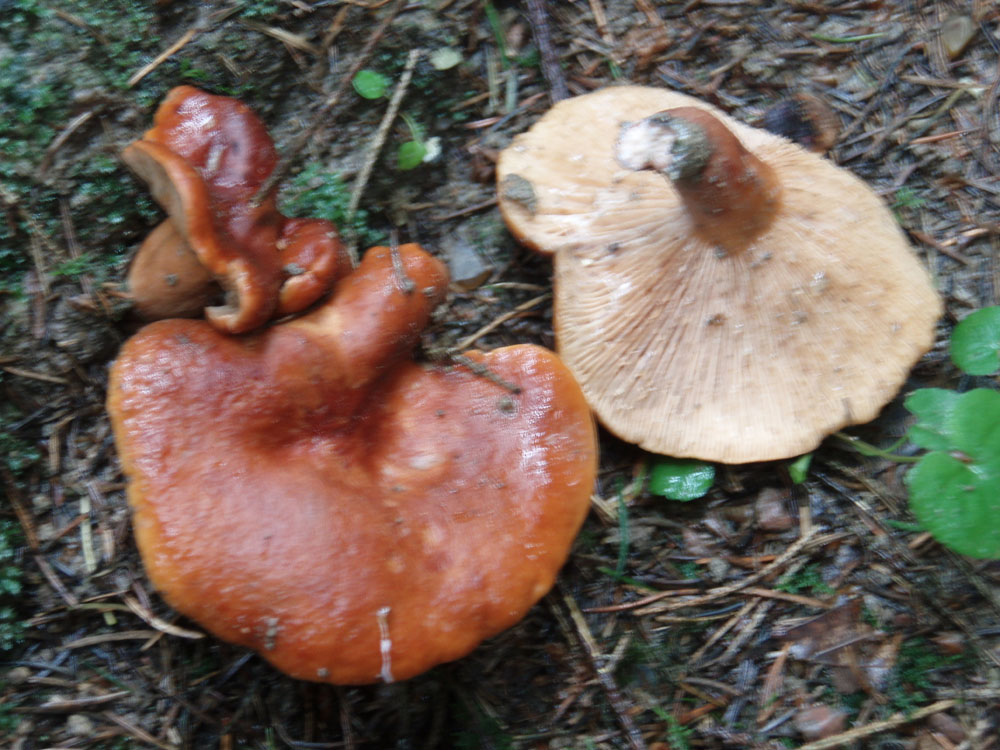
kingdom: Fungi
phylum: Basidiomycota
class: Agaricomycetes
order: Russulales
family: Russulaceae
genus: Lactarius
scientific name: Lactarius fulvissimus
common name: ræve-mælkehat
